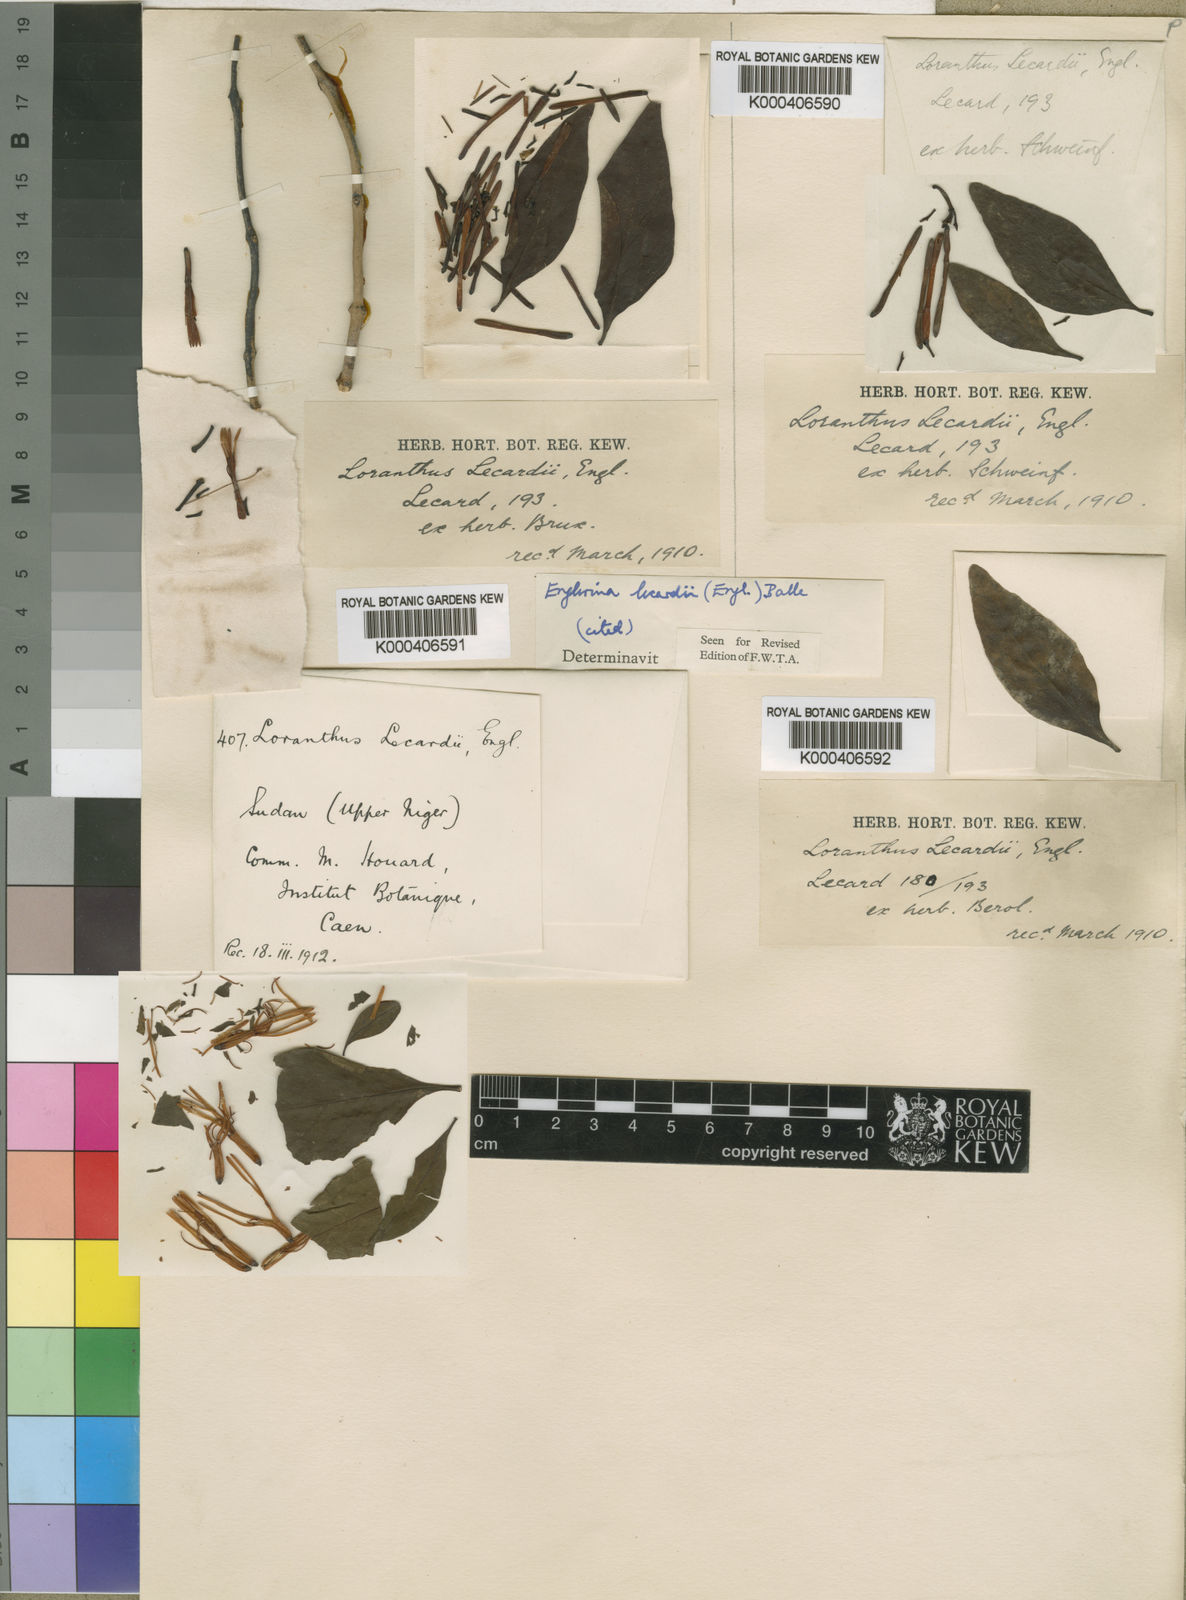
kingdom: Plantae
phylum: Tracheophyta
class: Magnoliopsida
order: Santalales
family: Loranthaceae
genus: Englerina
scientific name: Englerina lecardii
